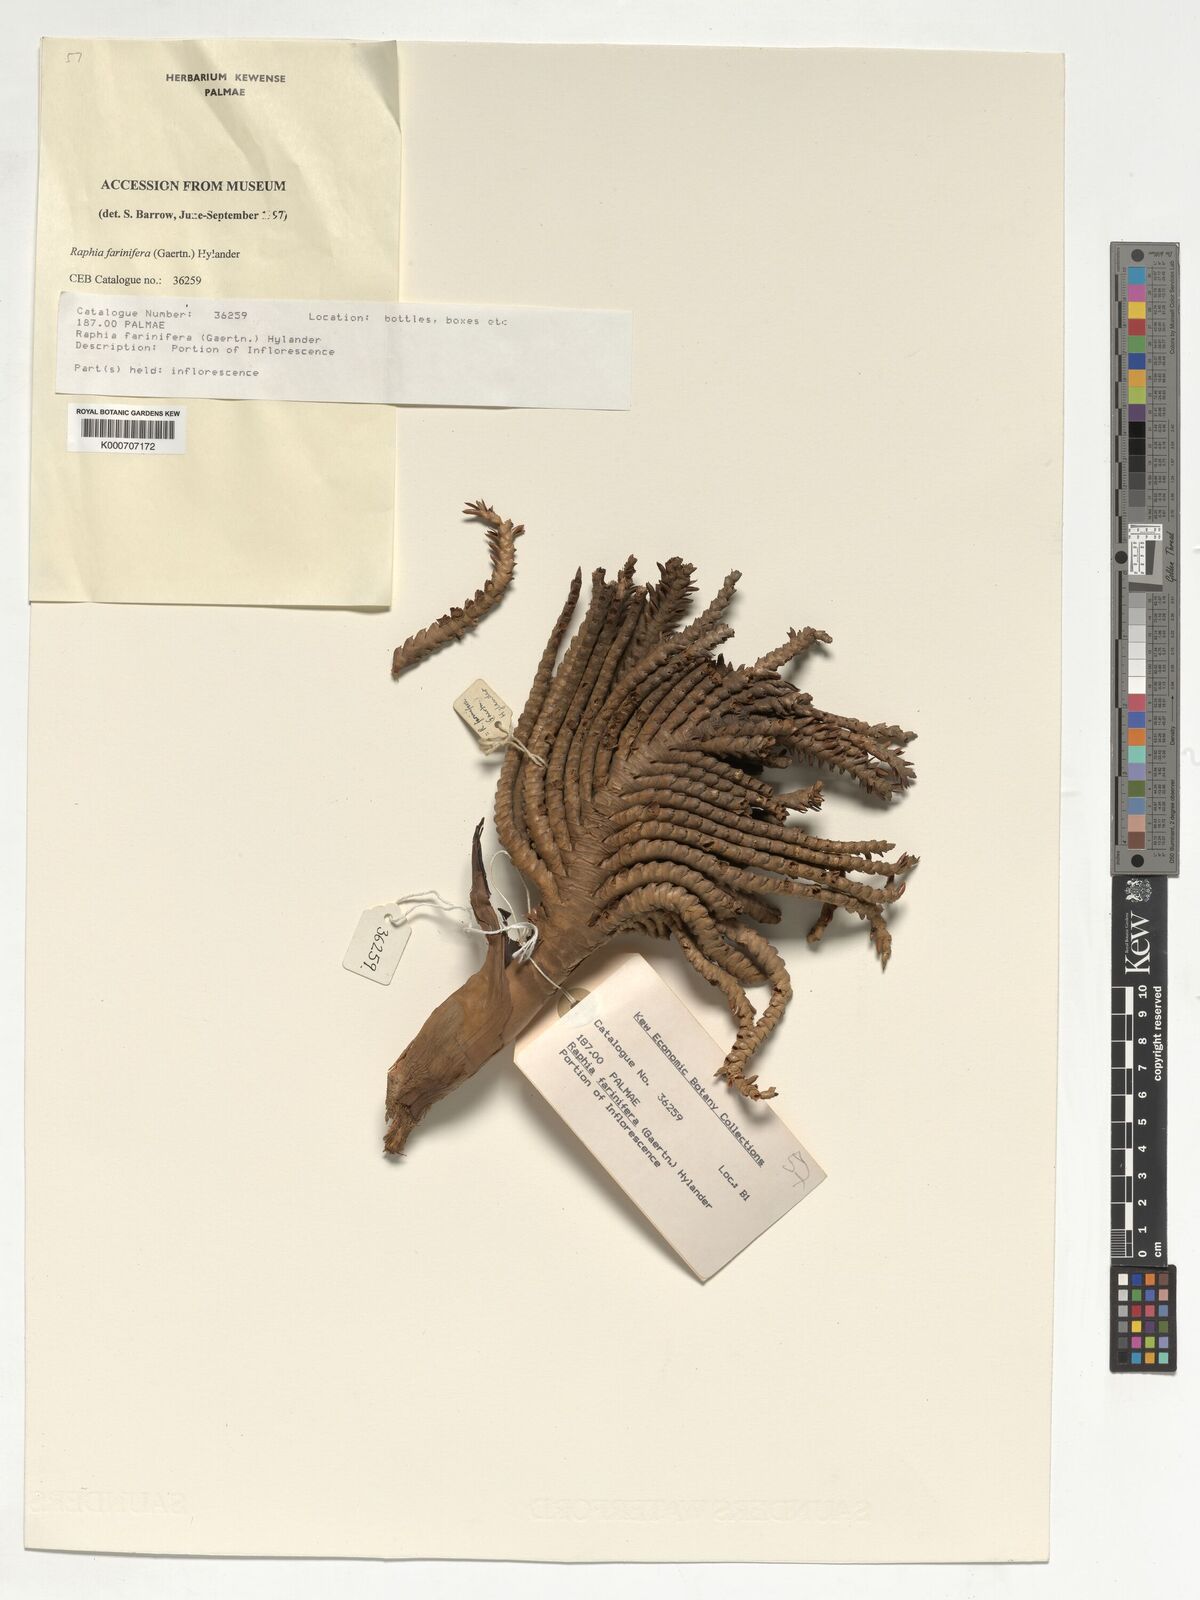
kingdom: Plantae
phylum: Tracheophyta
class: Liliopsida
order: Arecales
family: Arecaceae
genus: Raphia
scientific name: Raphia farinifera
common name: Raphia palm
